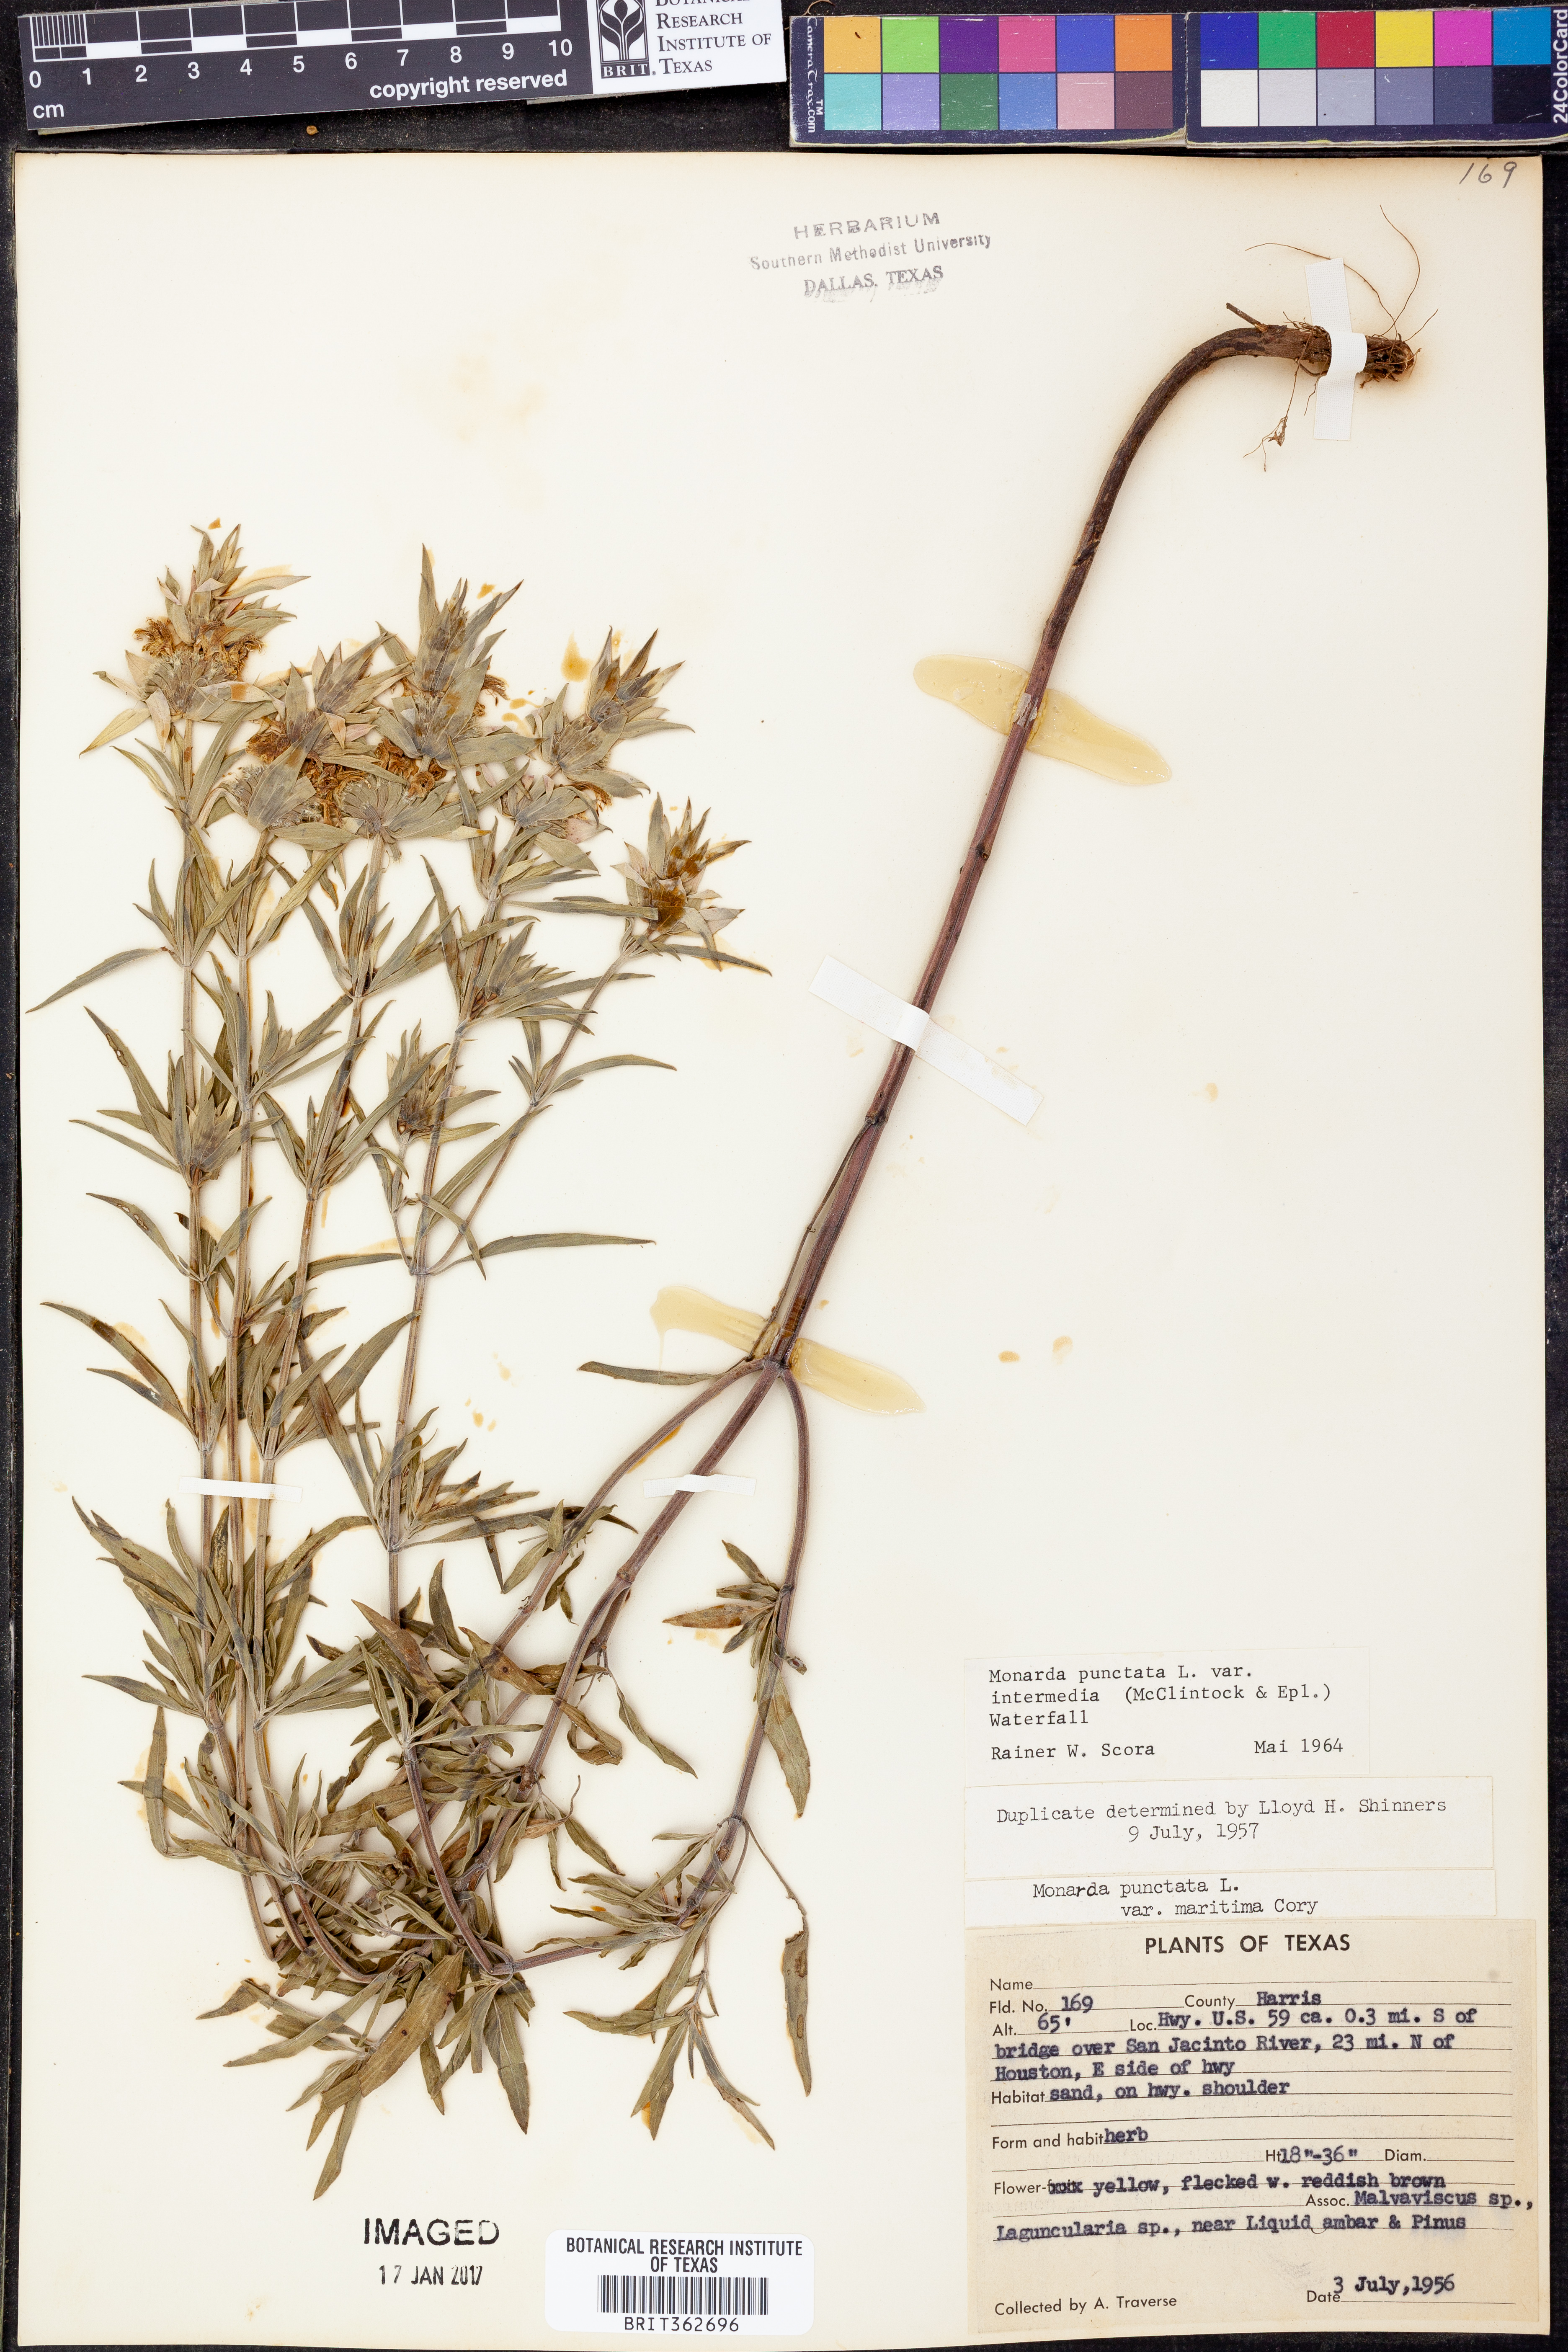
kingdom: Plantae
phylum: Tracheophyta
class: Magnoliopsida
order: Lamiales
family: Lamiaceae
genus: Monarda
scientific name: Monarda punctata
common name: Dotted monarda
